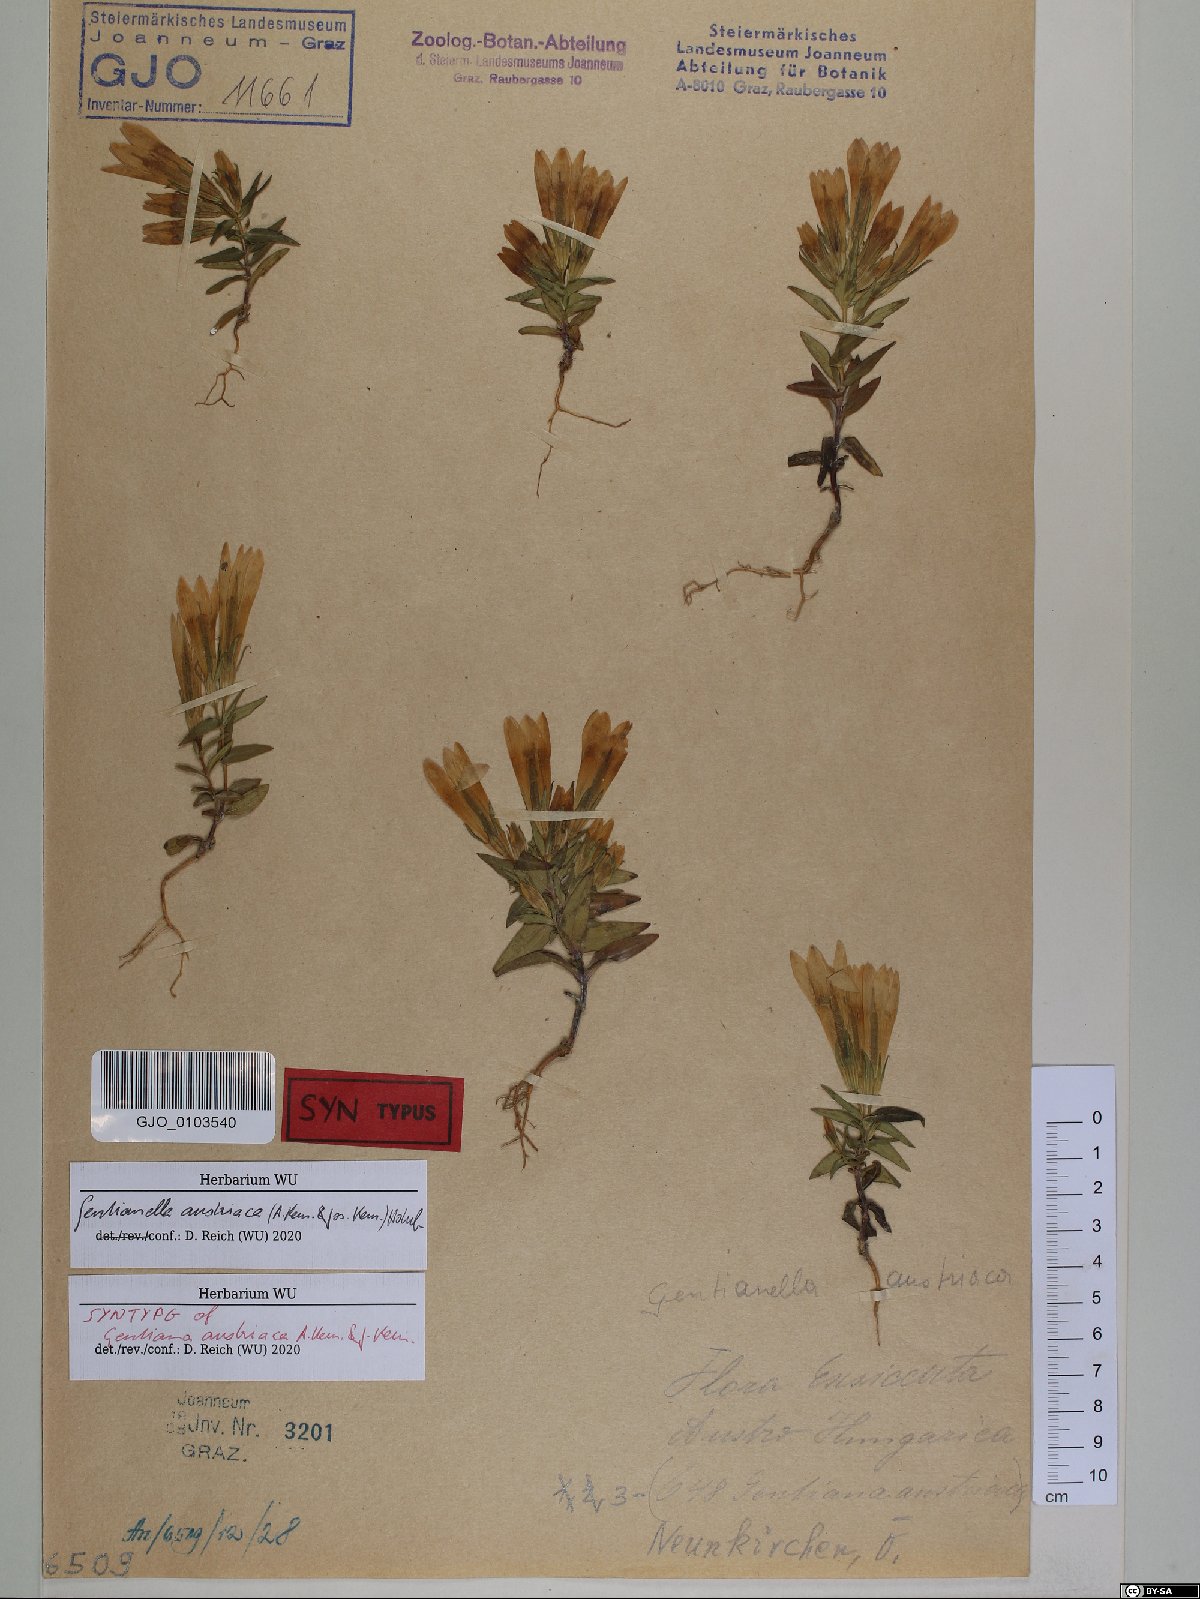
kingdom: Plantae
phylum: Tracheophyta
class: Magnoliopsida
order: Gentianales
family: Gentianaceae
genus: Gentianella
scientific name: Gentianella austriaca
